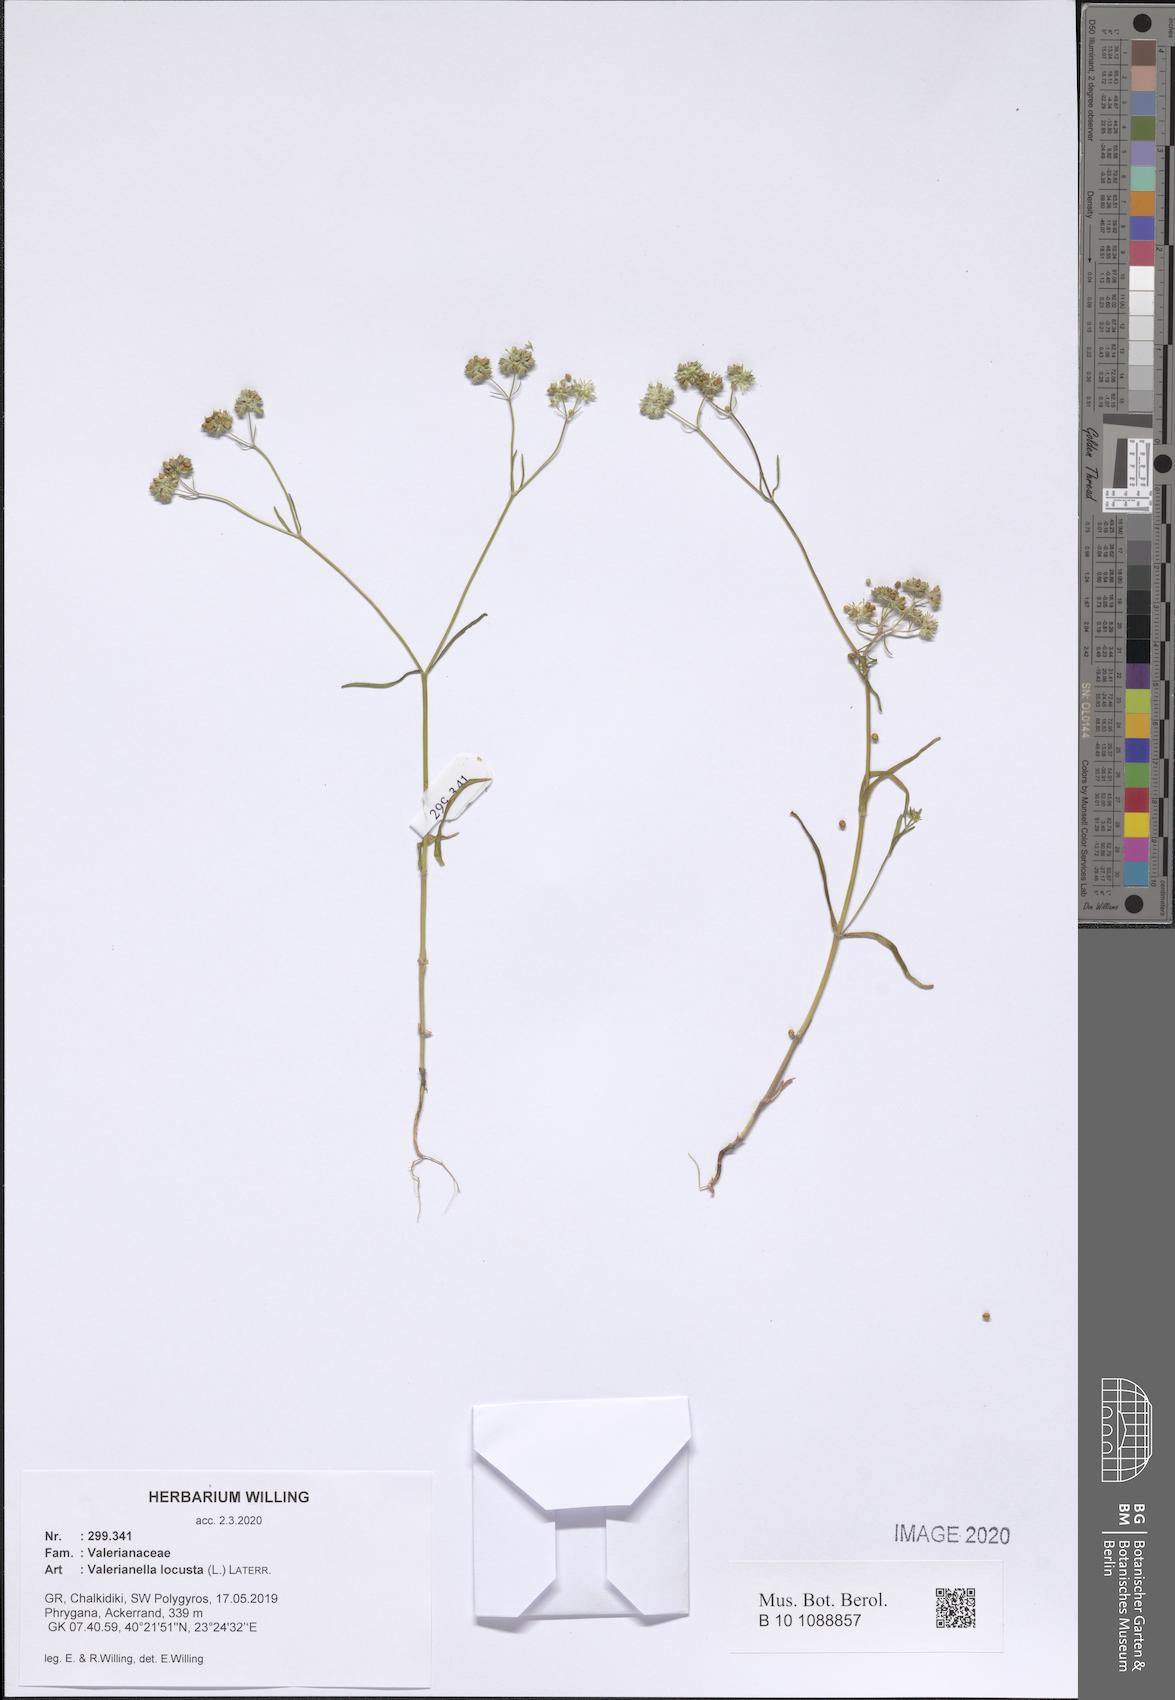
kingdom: Plantae
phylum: Tracheophyta
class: Magnoliopsida
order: Dipsacales
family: Caprifoliaceae
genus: Valerianella
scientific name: Valerianella locusta
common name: Common cornsalad
